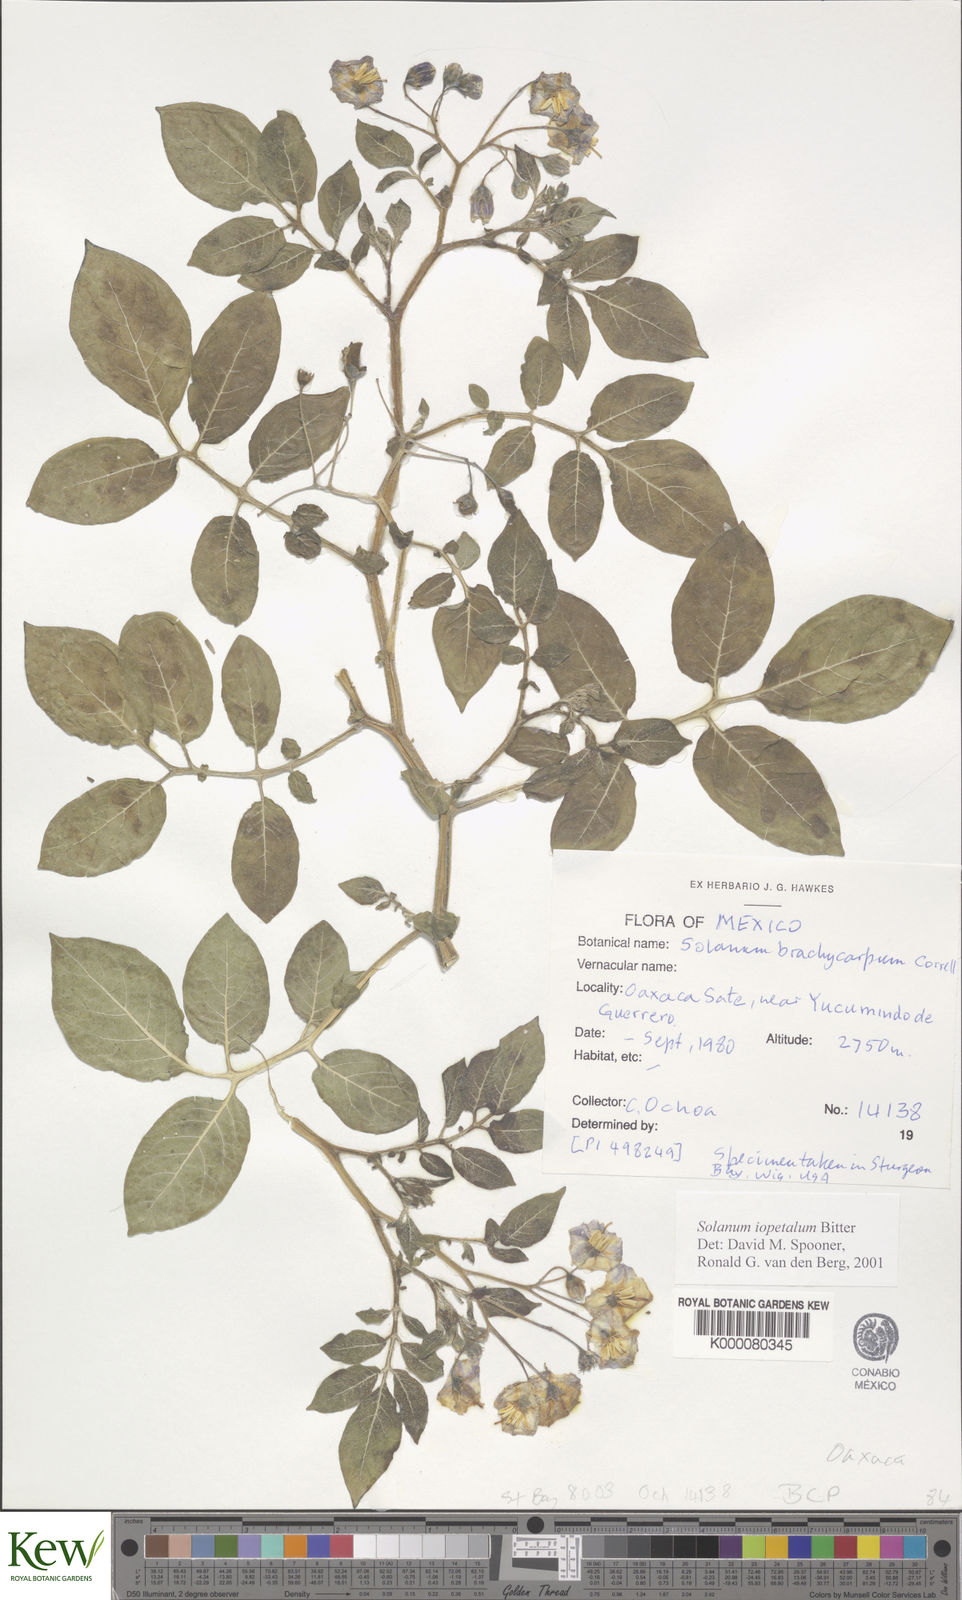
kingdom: Plantae
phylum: Tracheophyta
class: Magnoliopsida
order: Solanales
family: Solanaceae
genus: Solanum
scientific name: Solanum iopetalum
